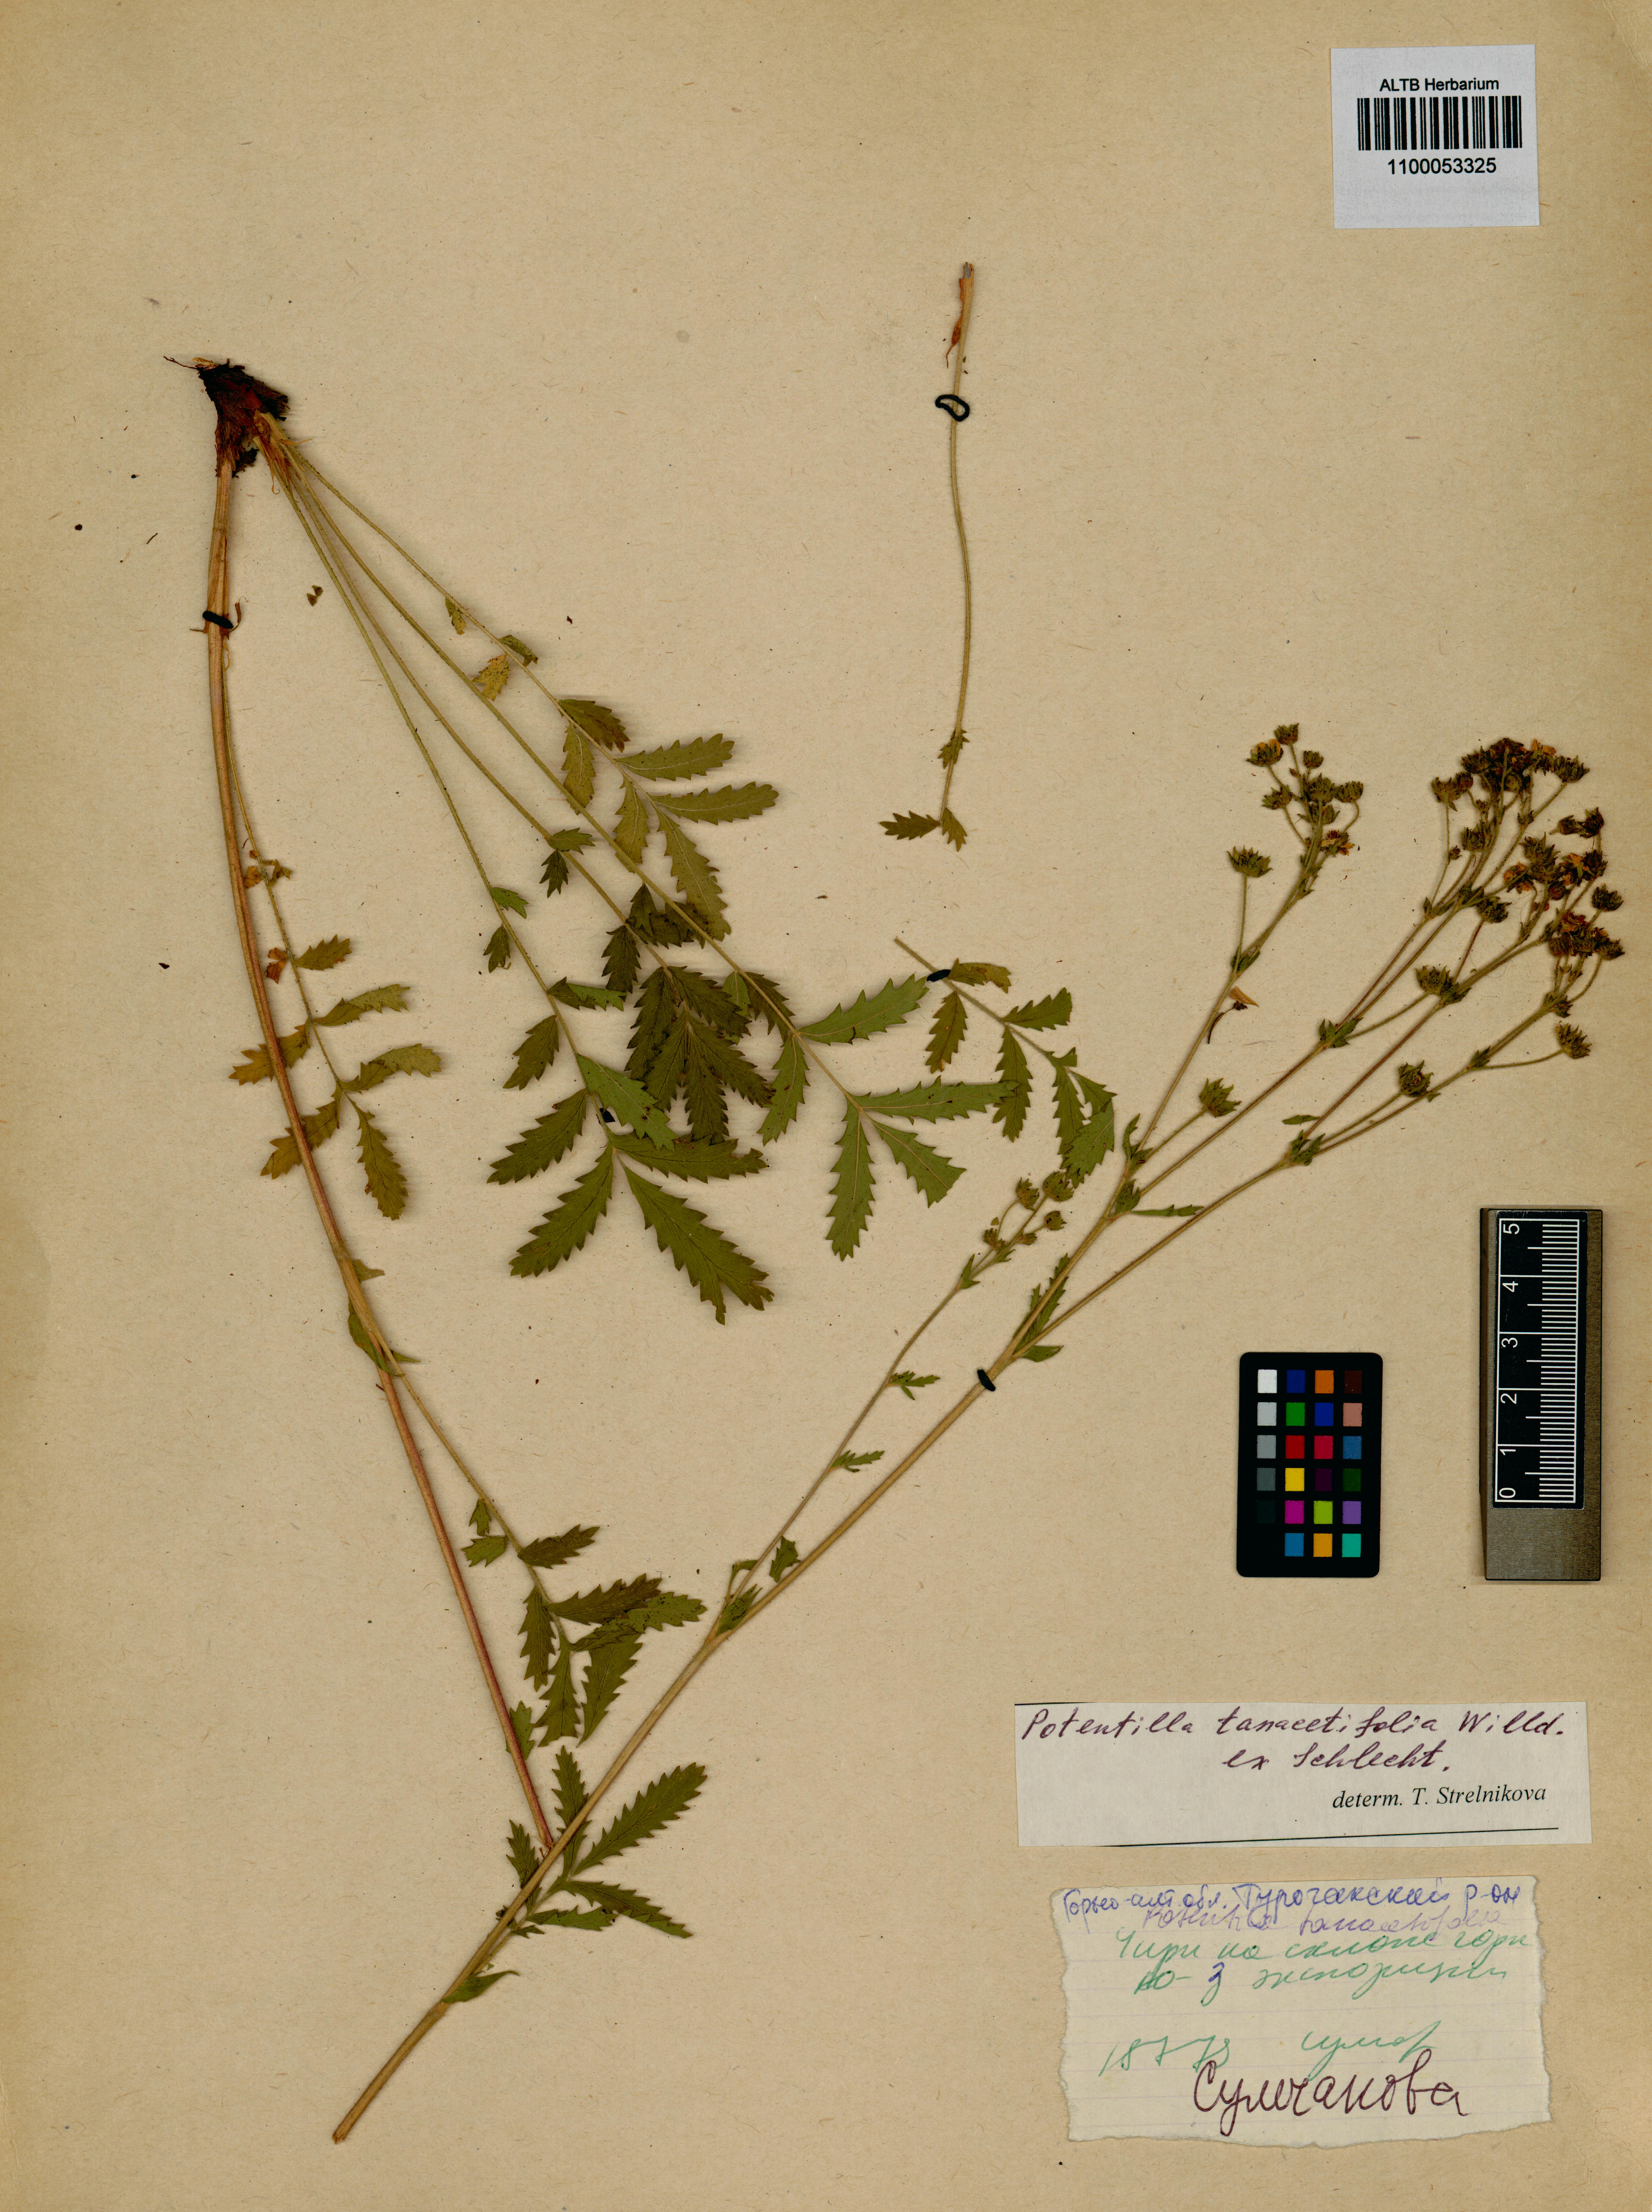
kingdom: Plantae
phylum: Tracheophyta
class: Magnoliopsida
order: Rosales
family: Rosaceae
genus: Potentilla
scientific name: Potentilla tanacetifolia
